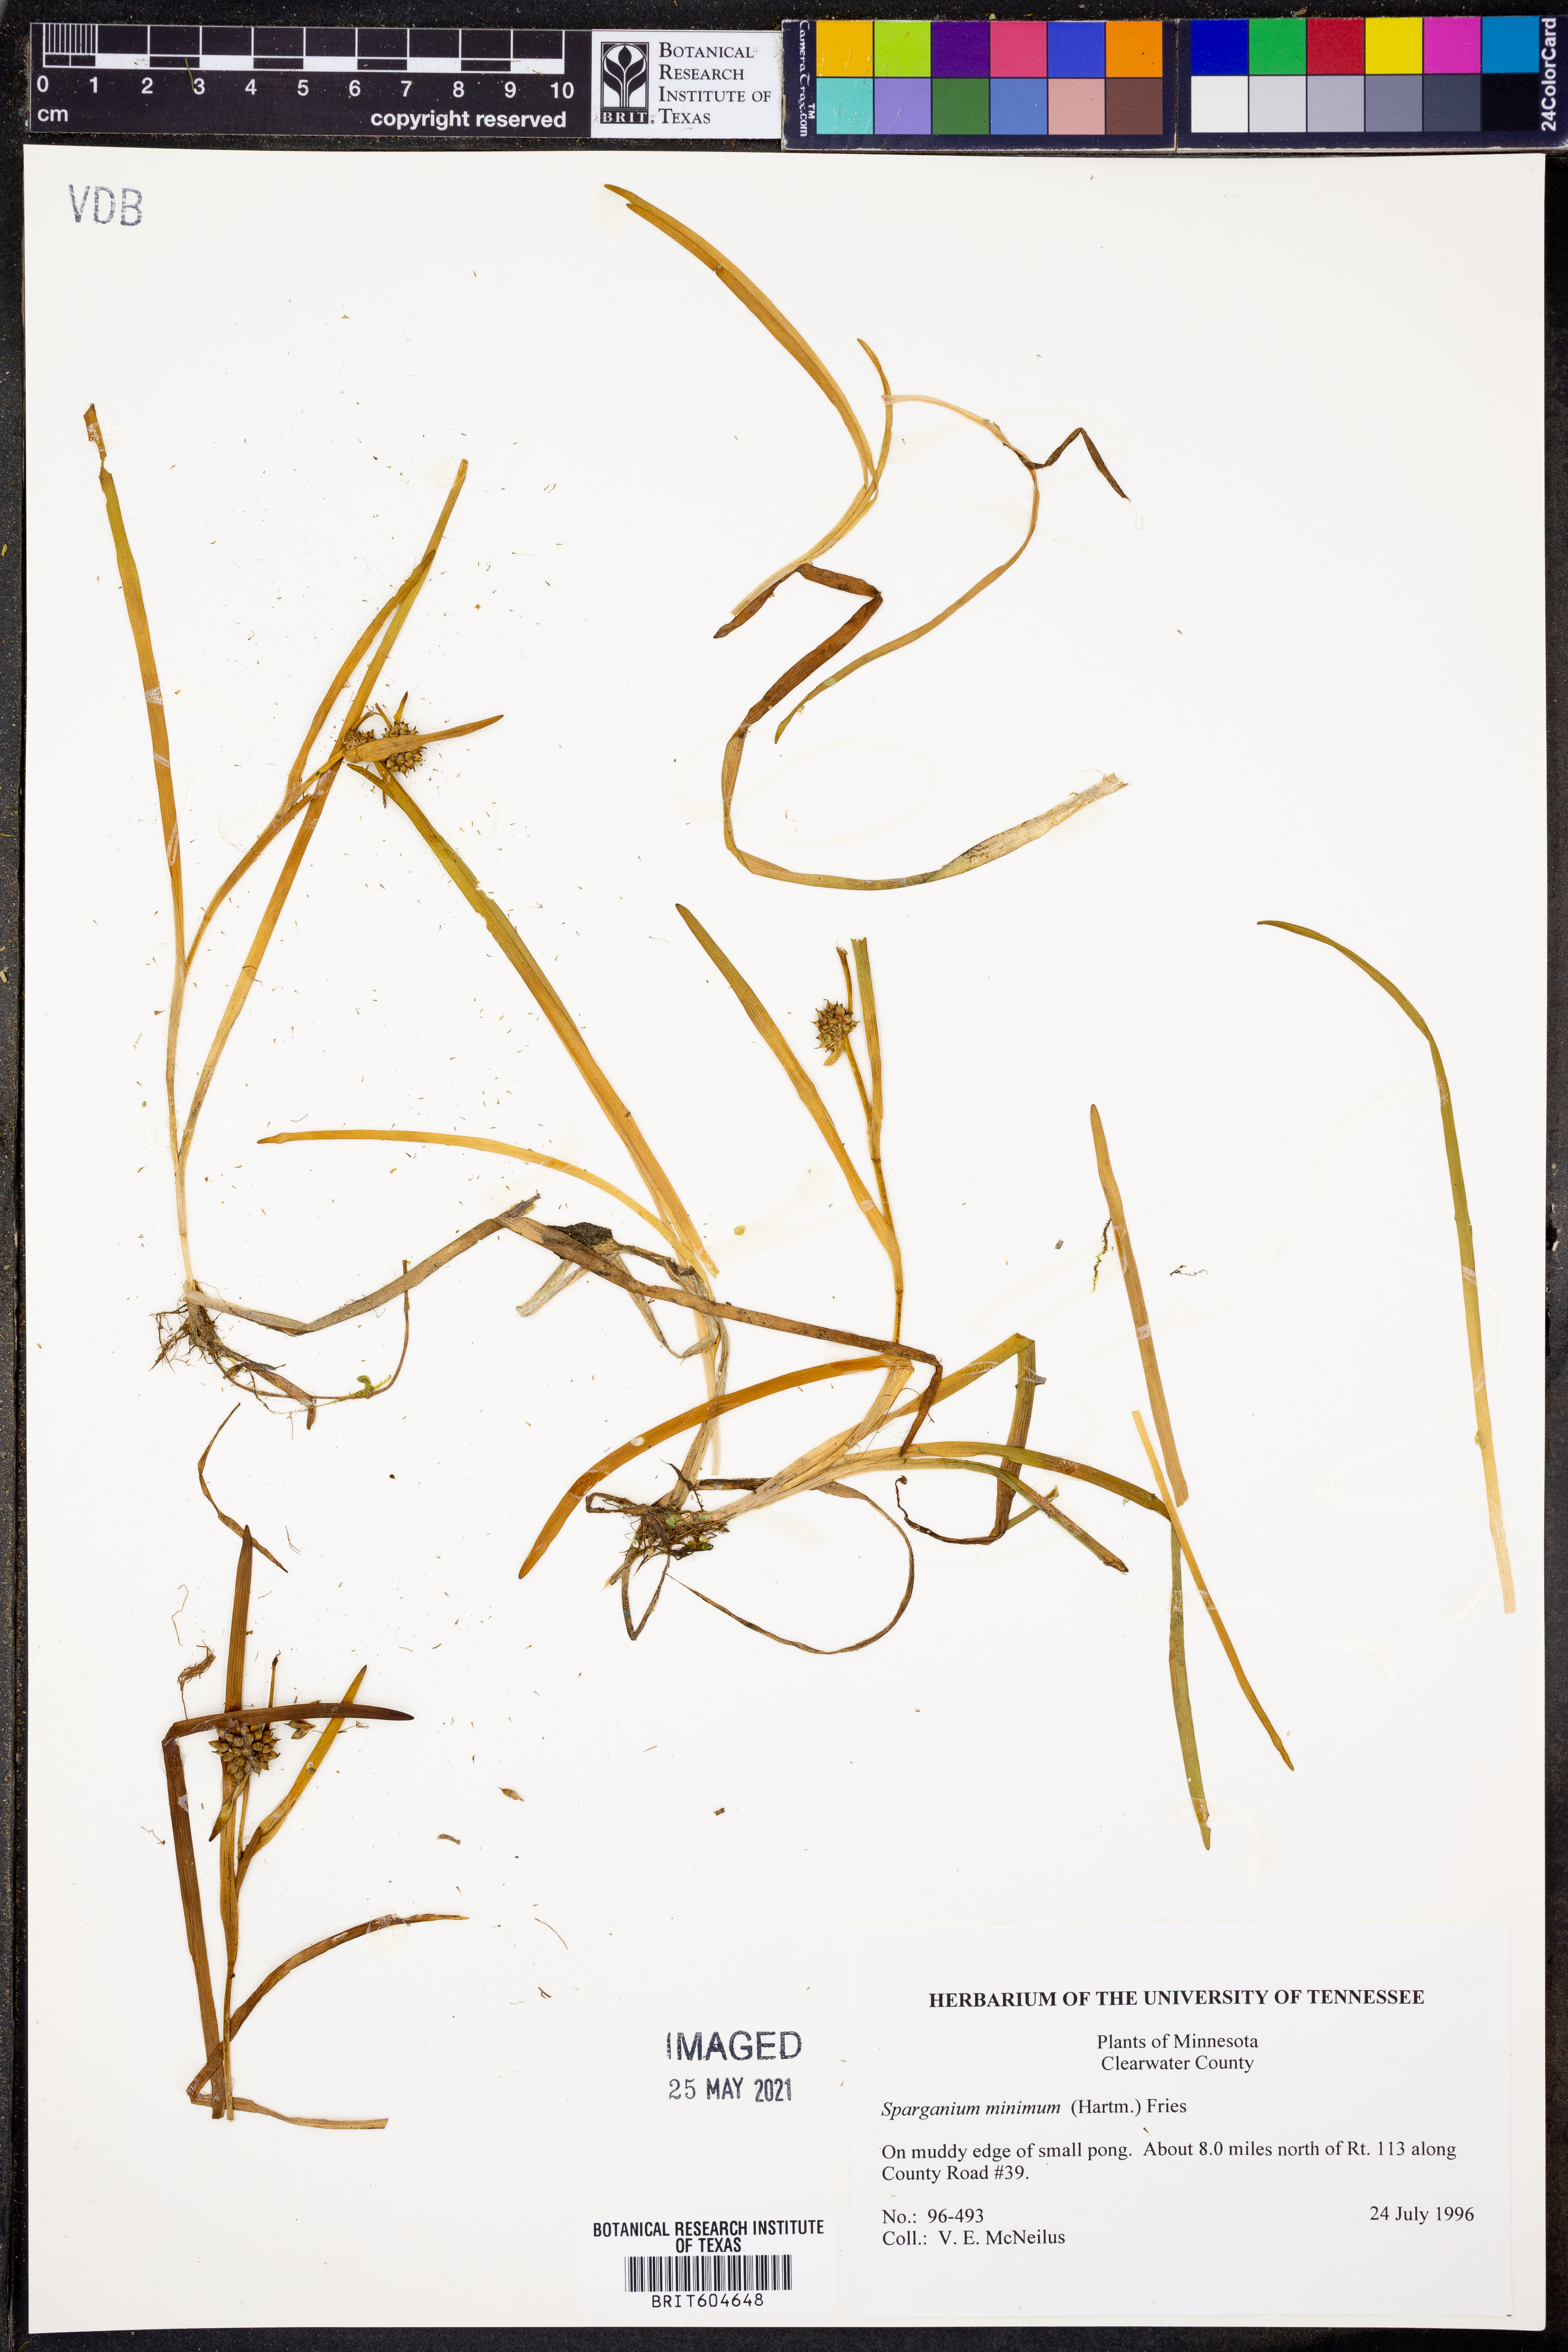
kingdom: Plantae
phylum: Tracheophyta
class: Liliopsida
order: Poales
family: Typhaceae
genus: Sparganium
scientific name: Sparganium natans
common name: Least bur-reed
